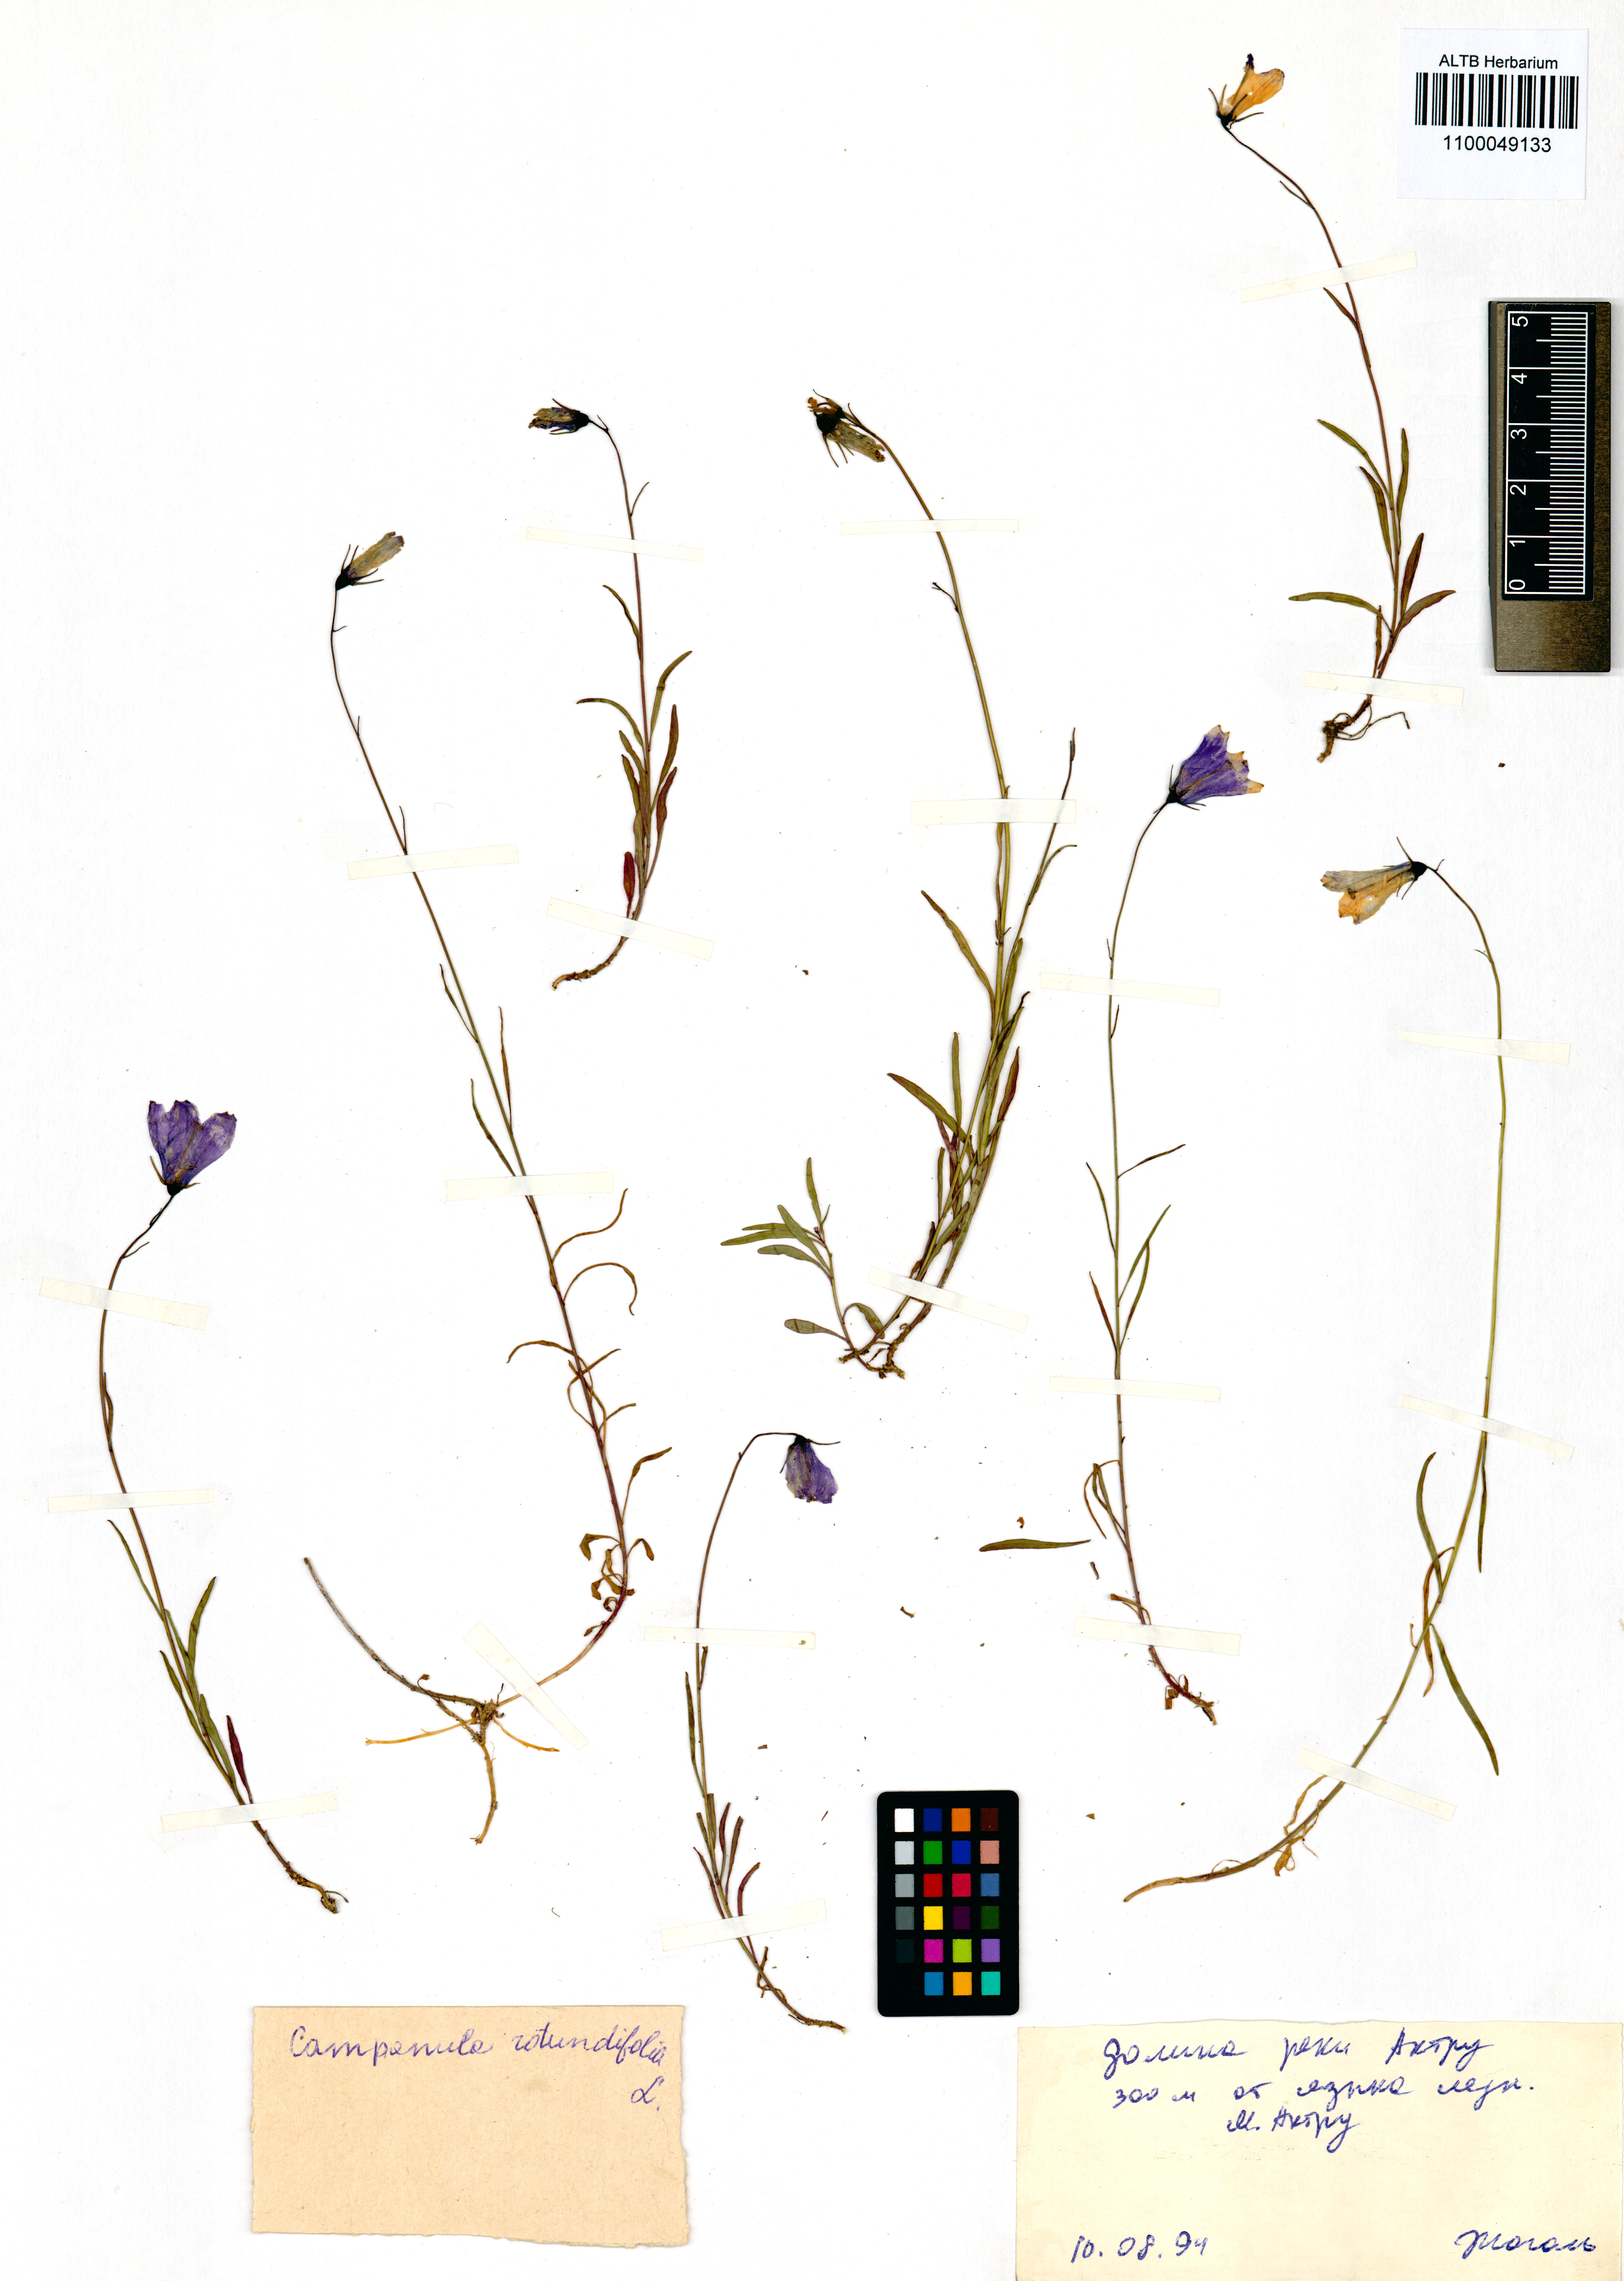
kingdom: Plantae
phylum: Tracheophyta
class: Magnoliopsida
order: Asterales
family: Campanulaceae
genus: Campanula
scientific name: Campanula rotundifolia
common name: Harebell
